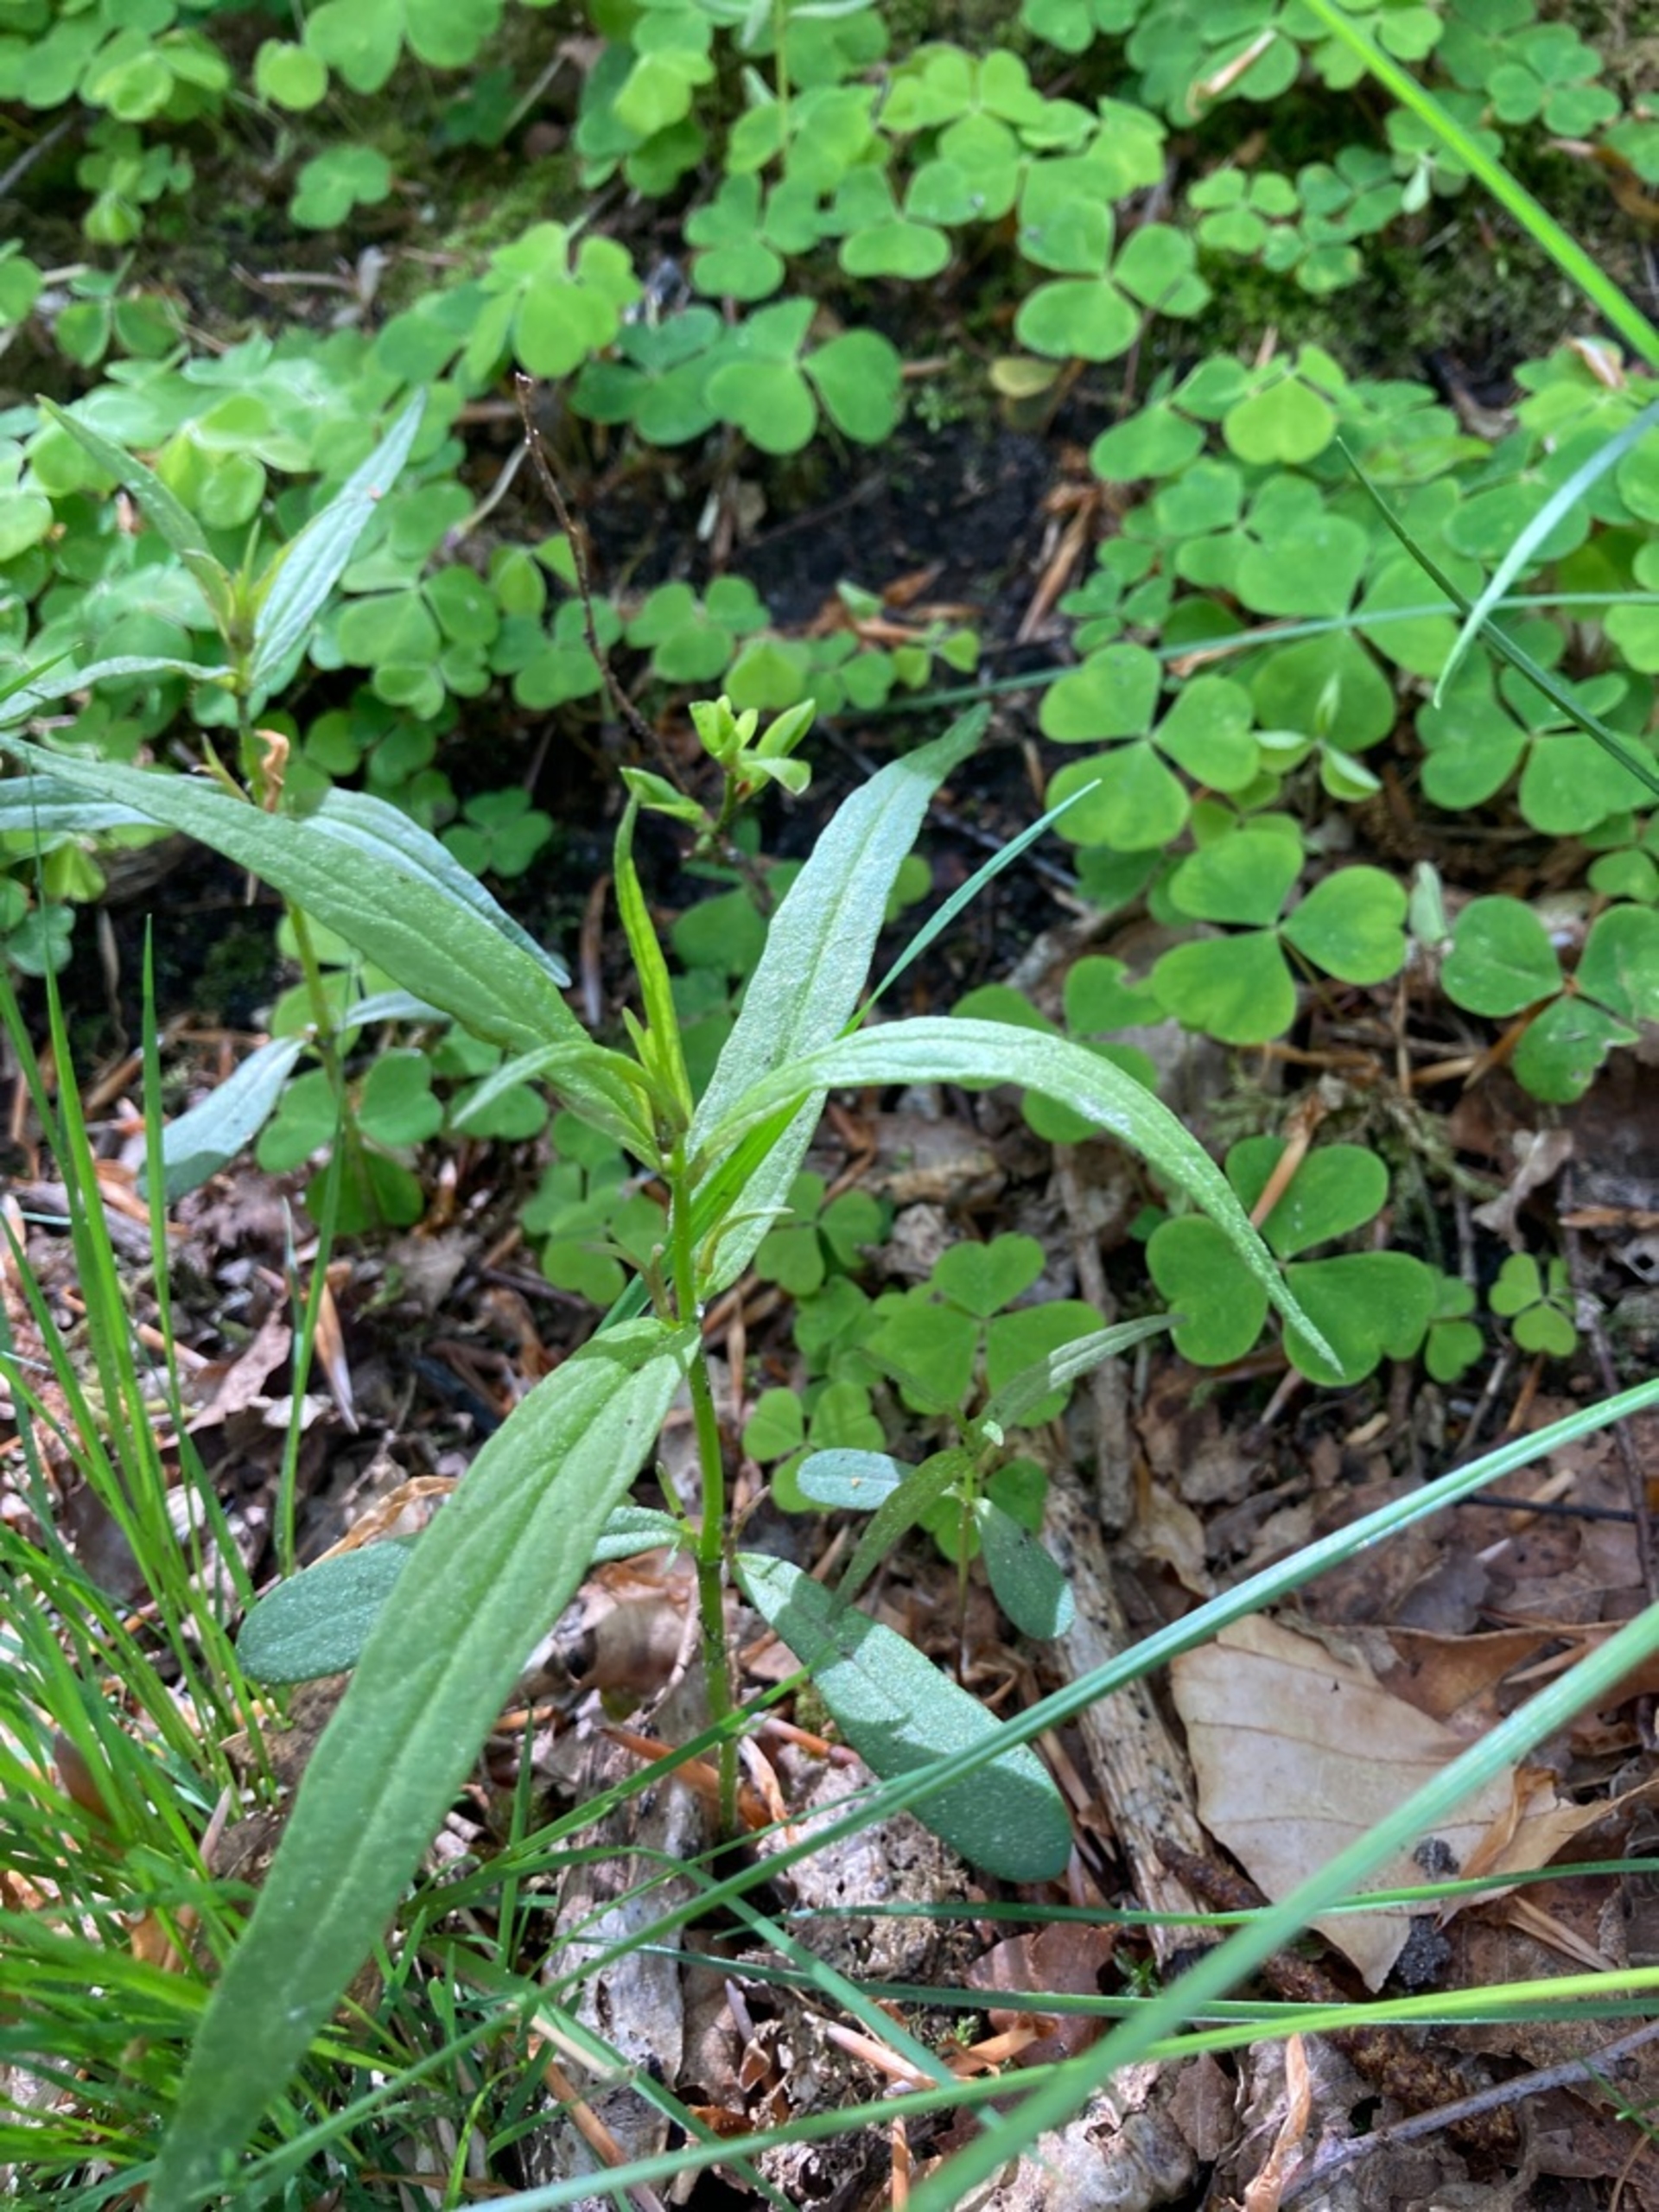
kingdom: Plantae
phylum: Tracheophyta
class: Magnoliopsida
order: Lamiales
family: Orobanchaceae
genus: Melampyrum
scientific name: Melampyrum pratense
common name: Almindelig kohvede
